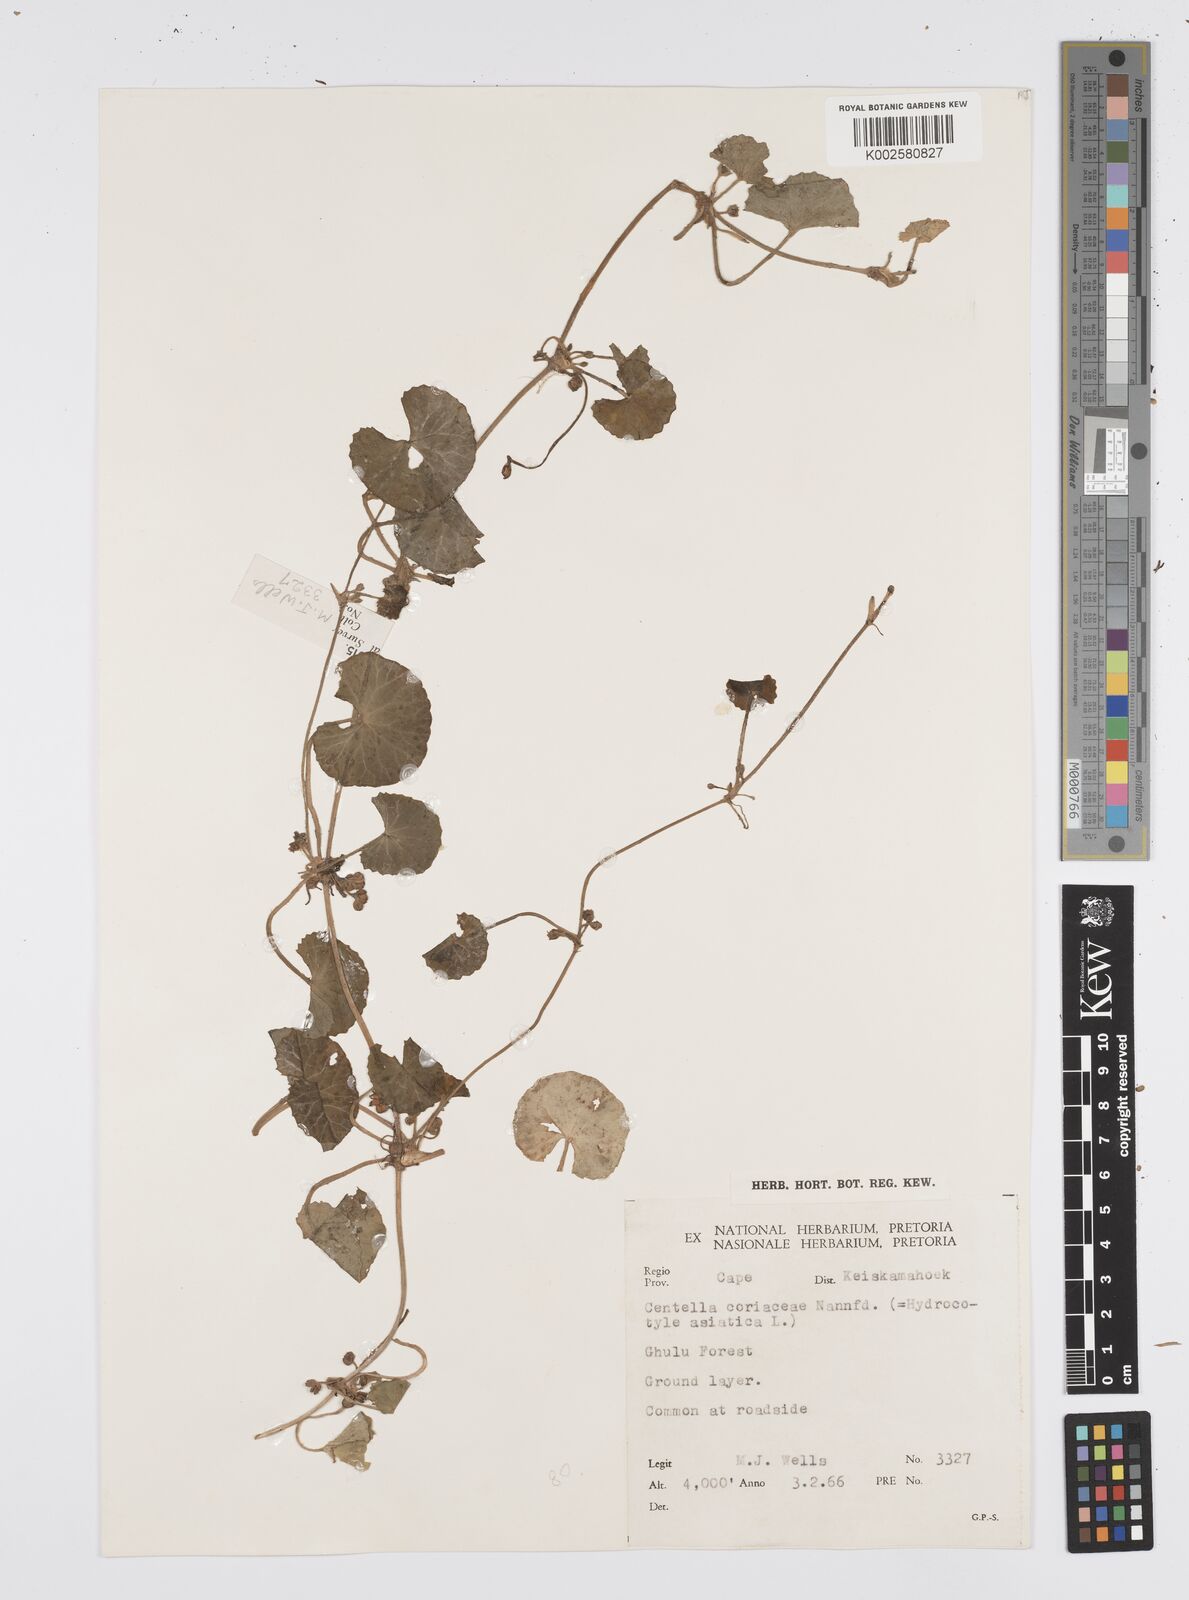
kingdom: Plantae
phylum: Tracheophyta
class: Magnoliopsida
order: Apiales
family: Apiaceae
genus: Centella
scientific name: Centella coriacea
